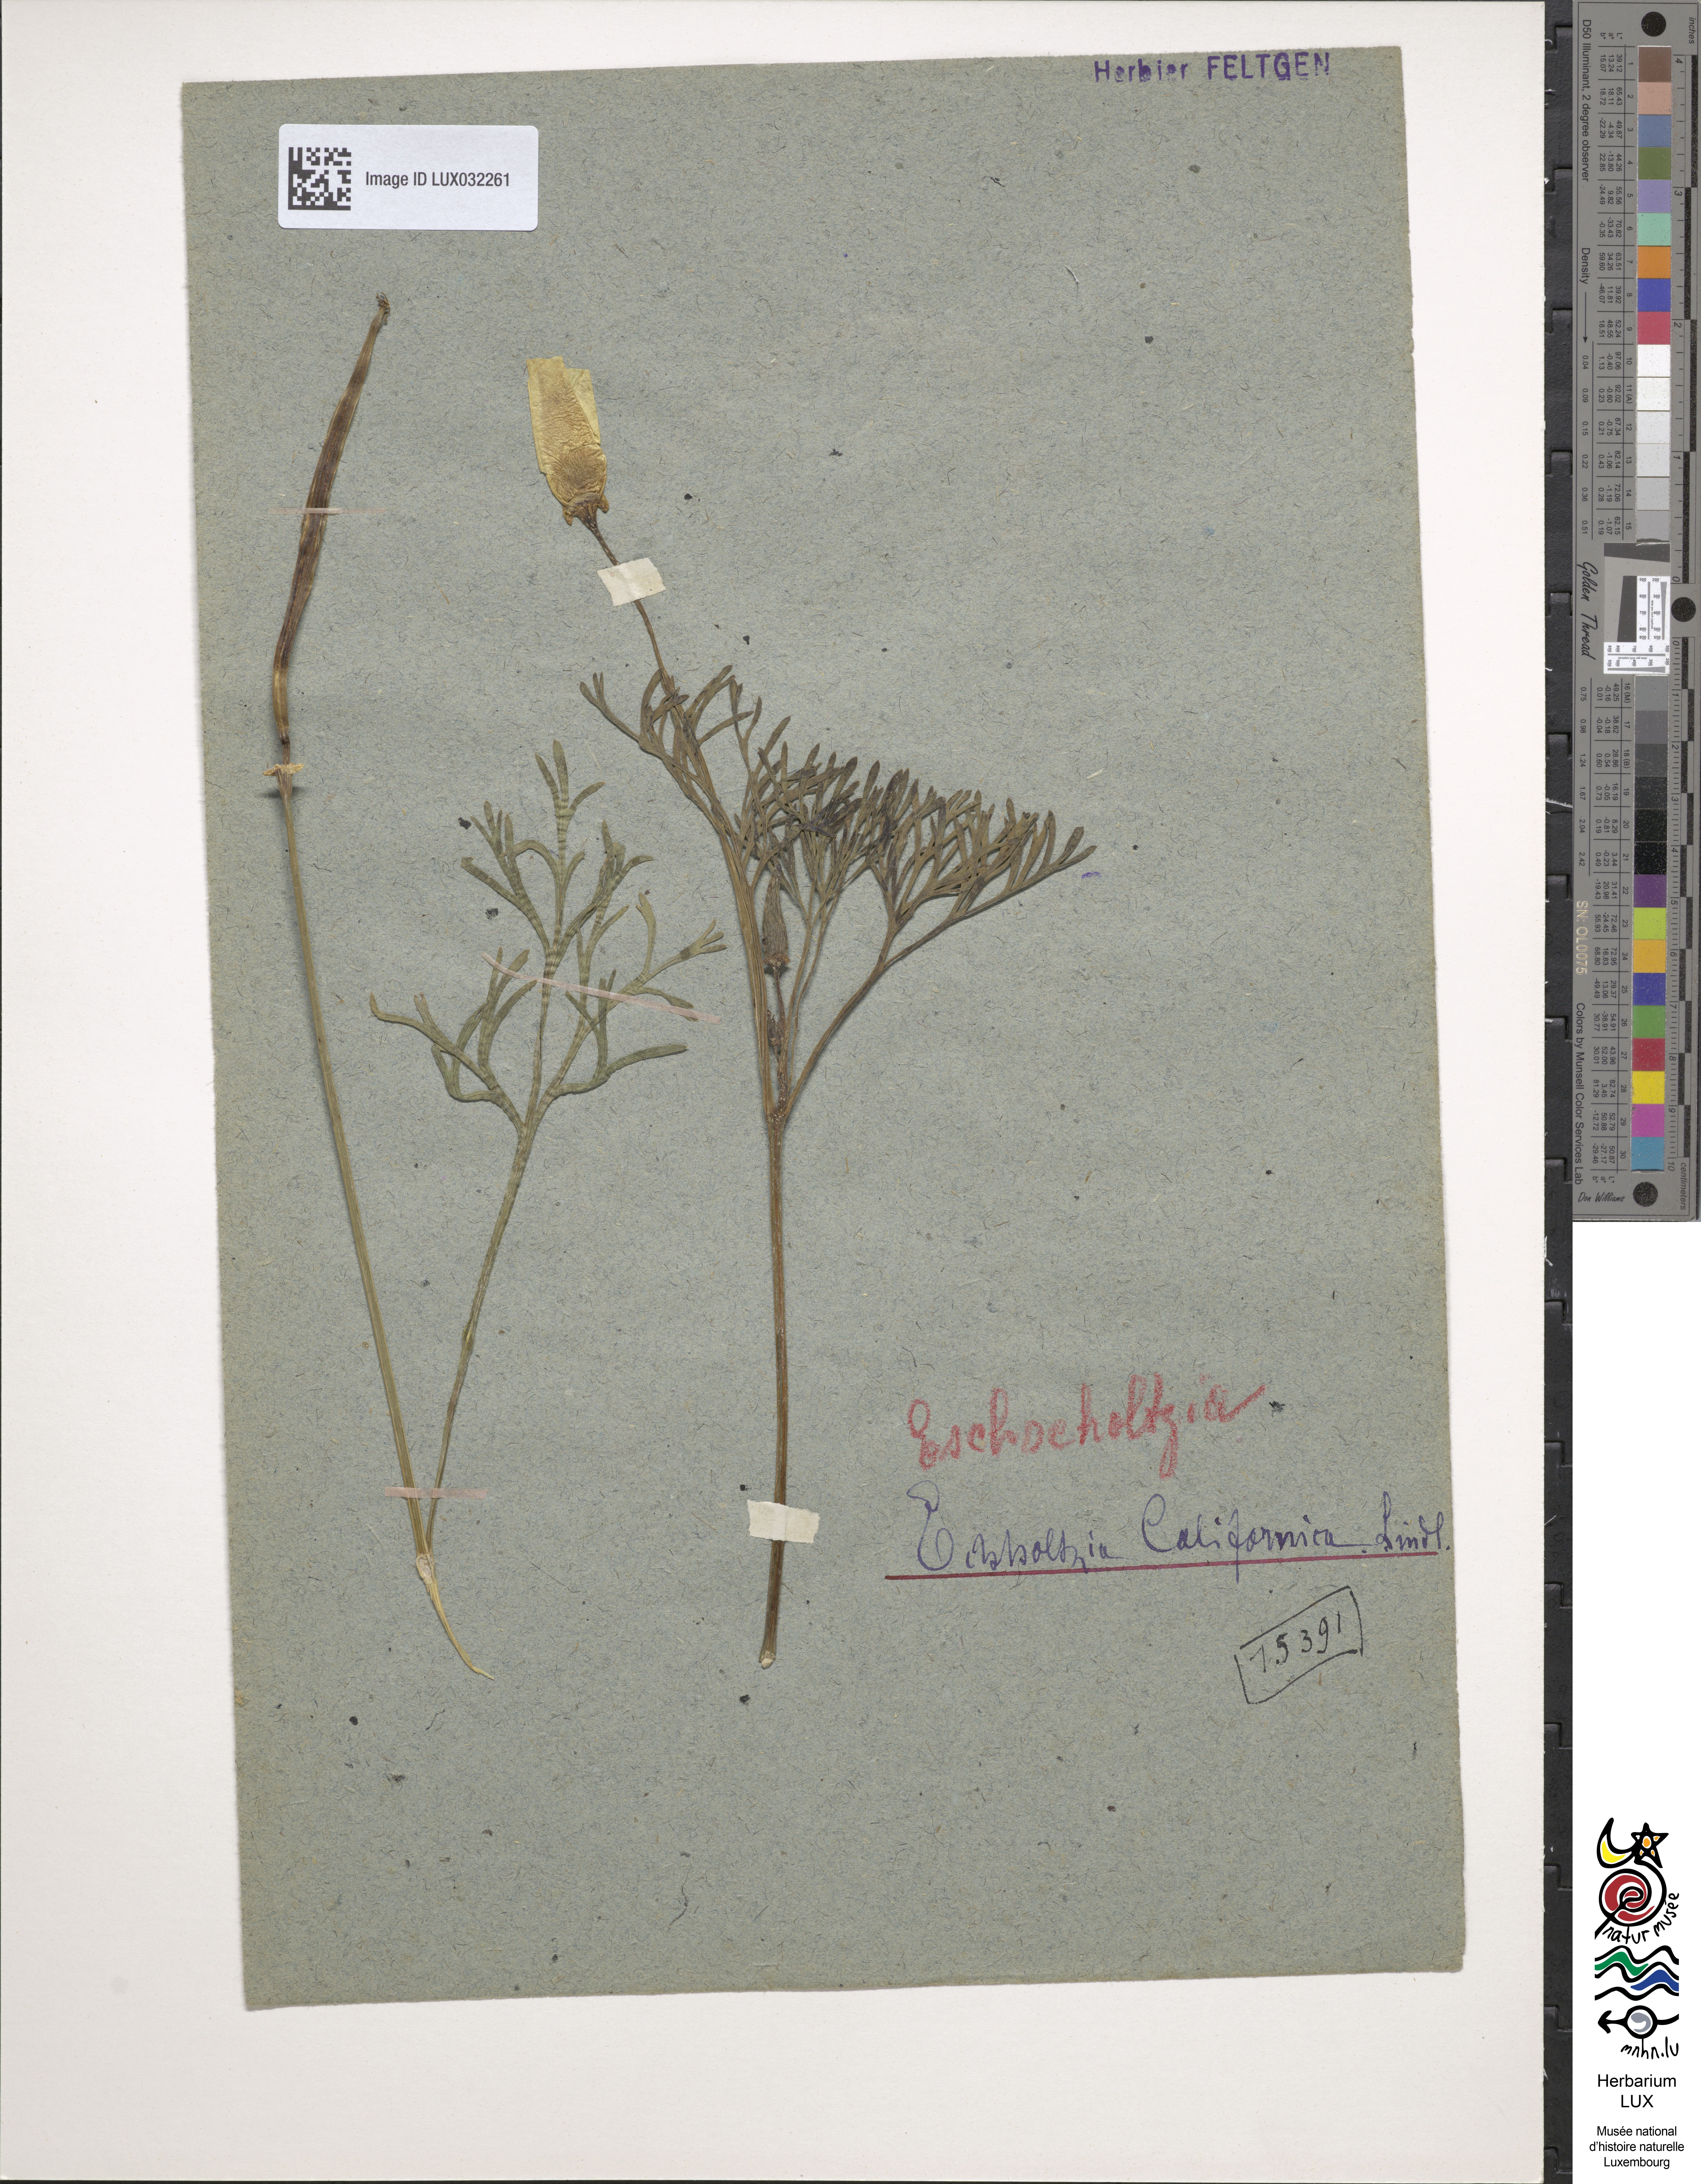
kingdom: Plantae
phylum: Tracheophyta
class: Magnoliopsida
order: Ranunculales
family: Papaveraceae
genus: Eschscholzia
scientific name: Eschscholzia californica
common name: California poppy
